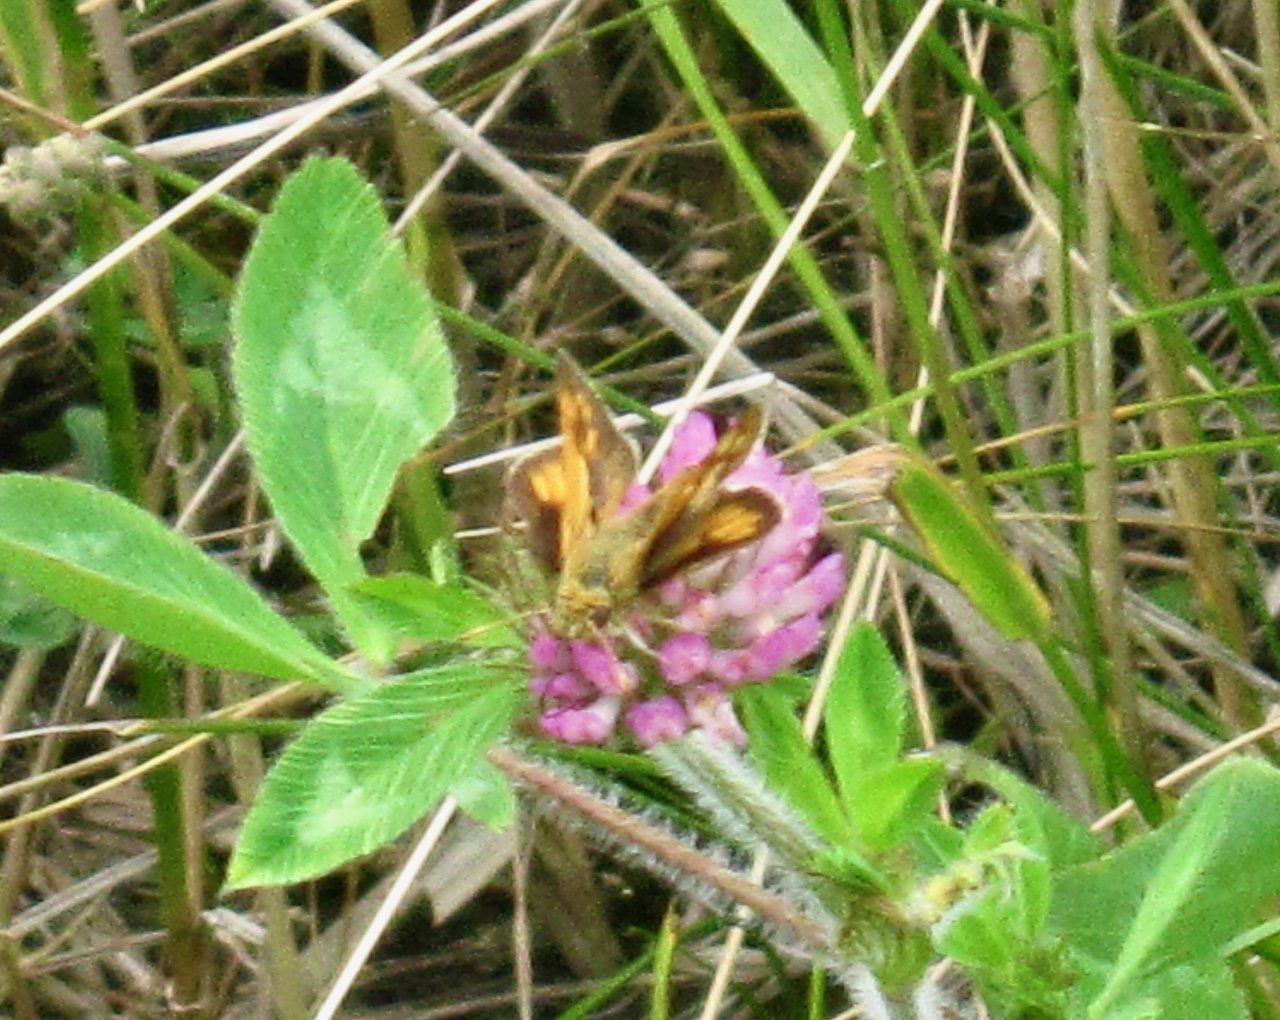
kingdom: Animalia
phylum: Arthropoda
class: Insecta
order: Lepidoptera
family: Hesperiidae
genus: Polites
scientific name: Polites coras
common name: Peck's Skipper
